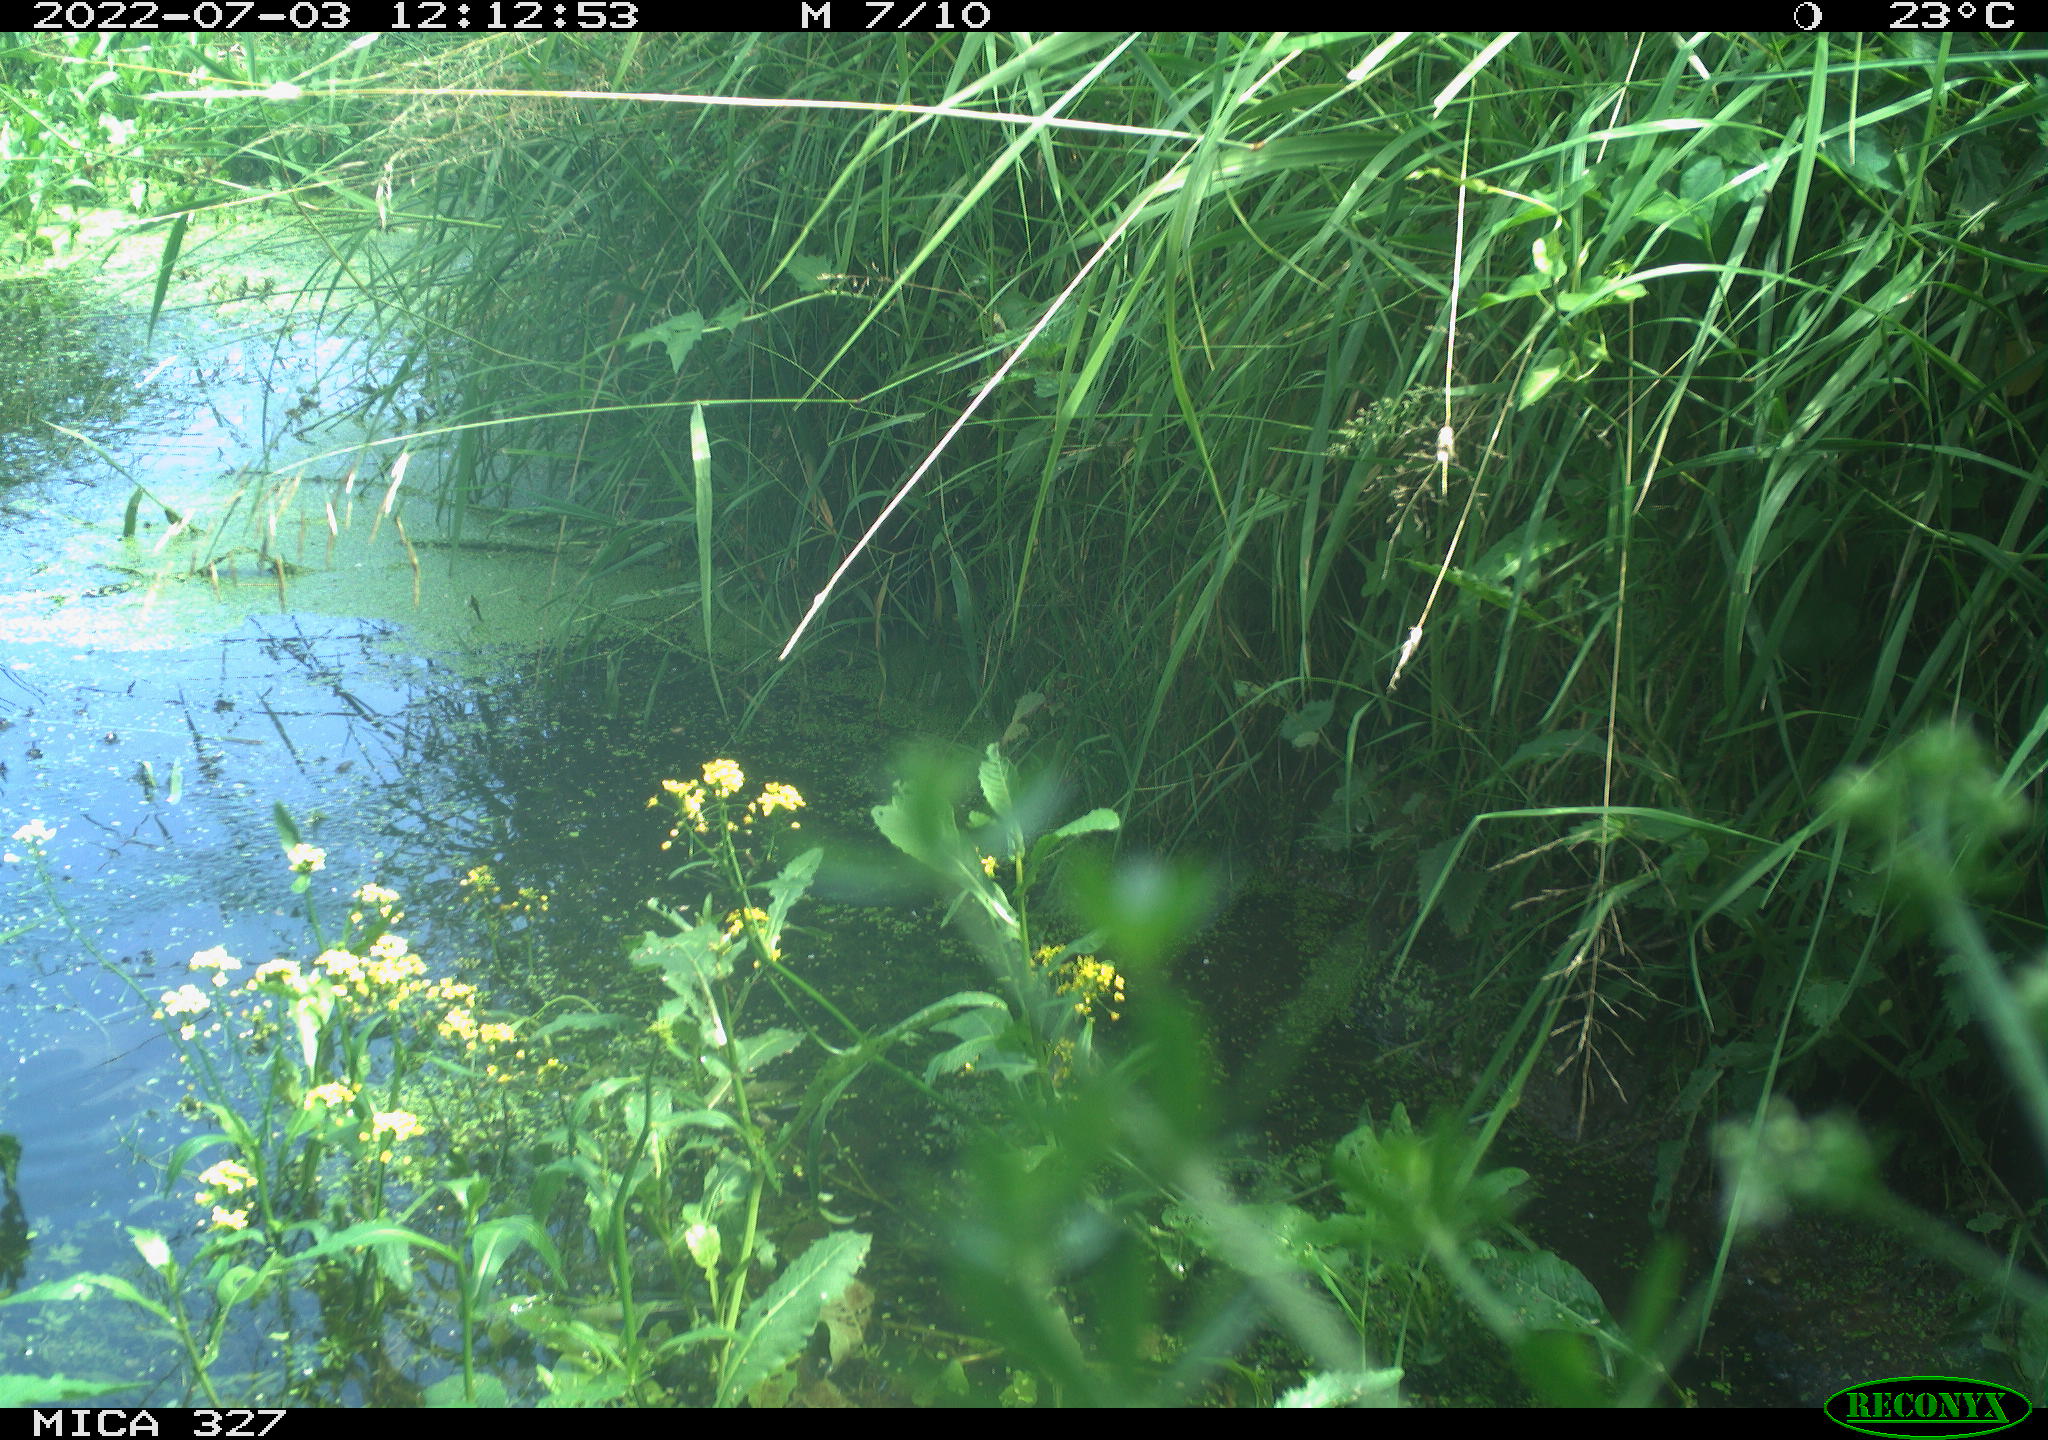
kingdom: Animalia
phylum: Chordata
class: Aves
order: Gruiformes
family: Rallidae
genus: Gallinula
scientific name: Gallinula chloropus
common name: Common moorhen
